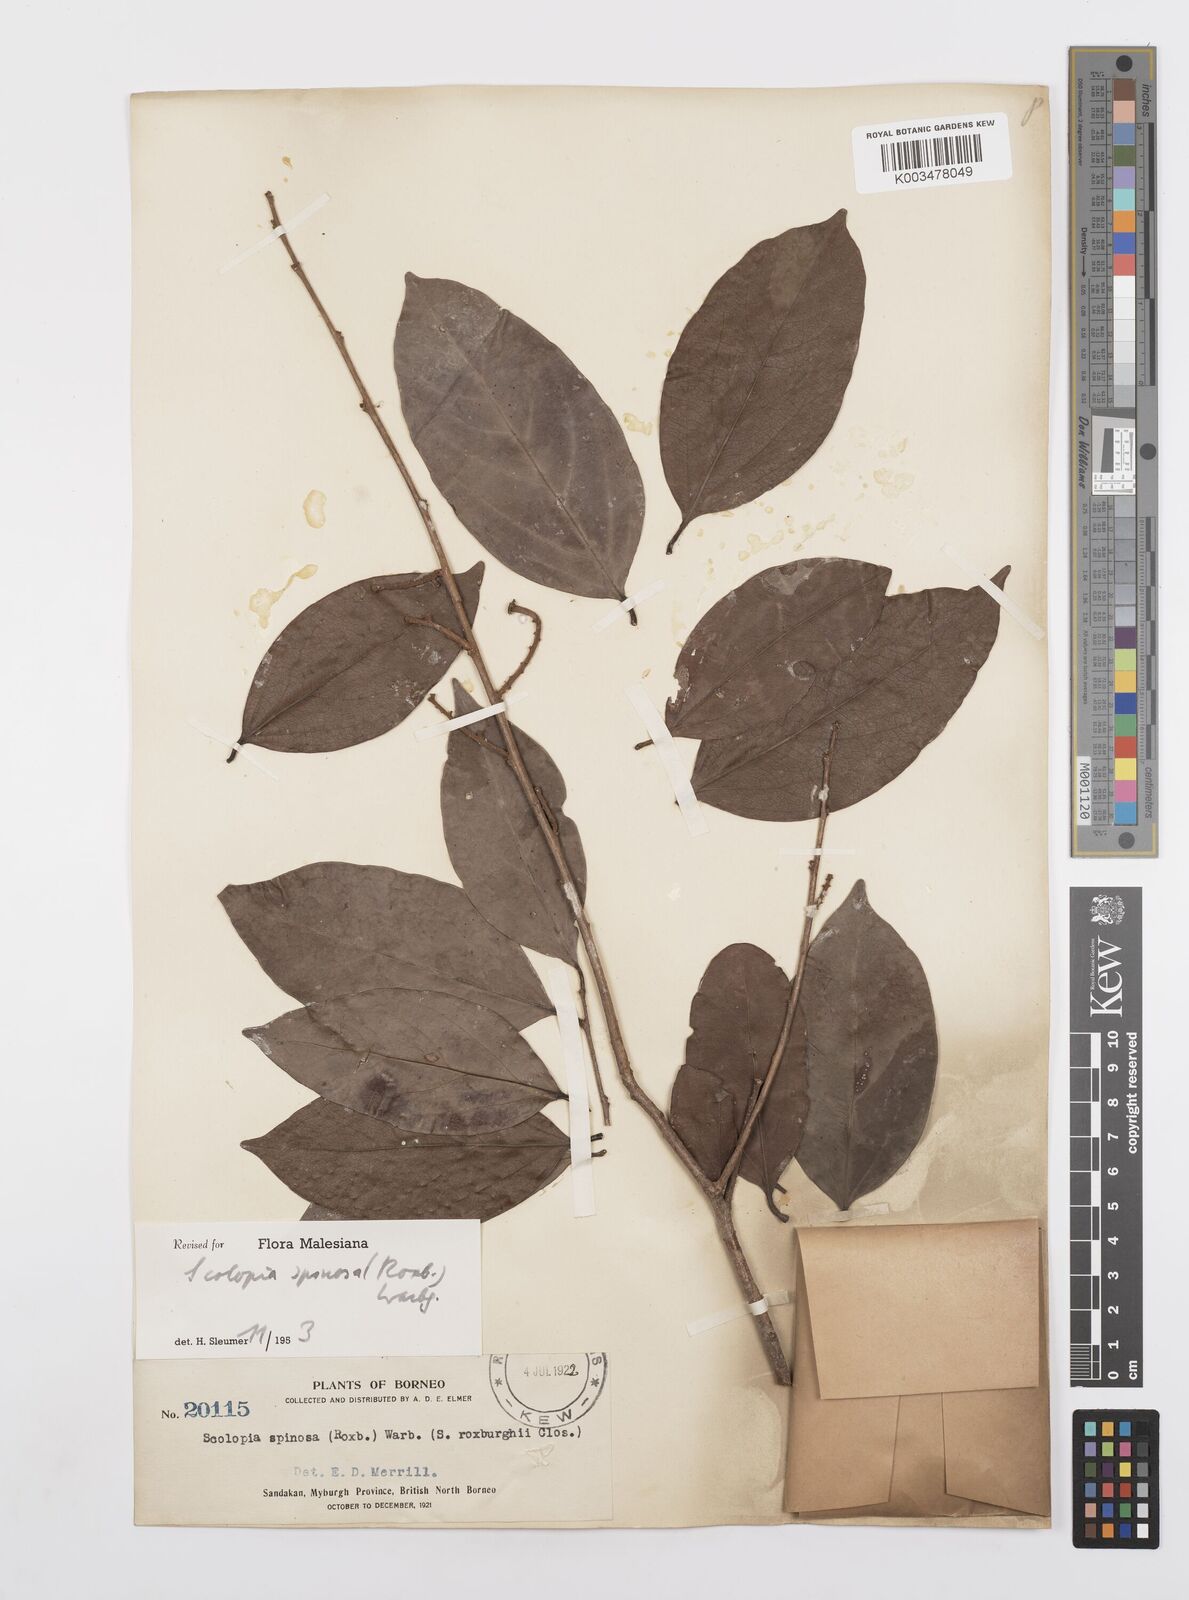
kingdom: Plantae
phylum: Tracheophyta
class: Magnoliopsida
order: Malpighiales
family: Salicaceae
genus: Scolopia
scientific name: Scolopia spinosa
